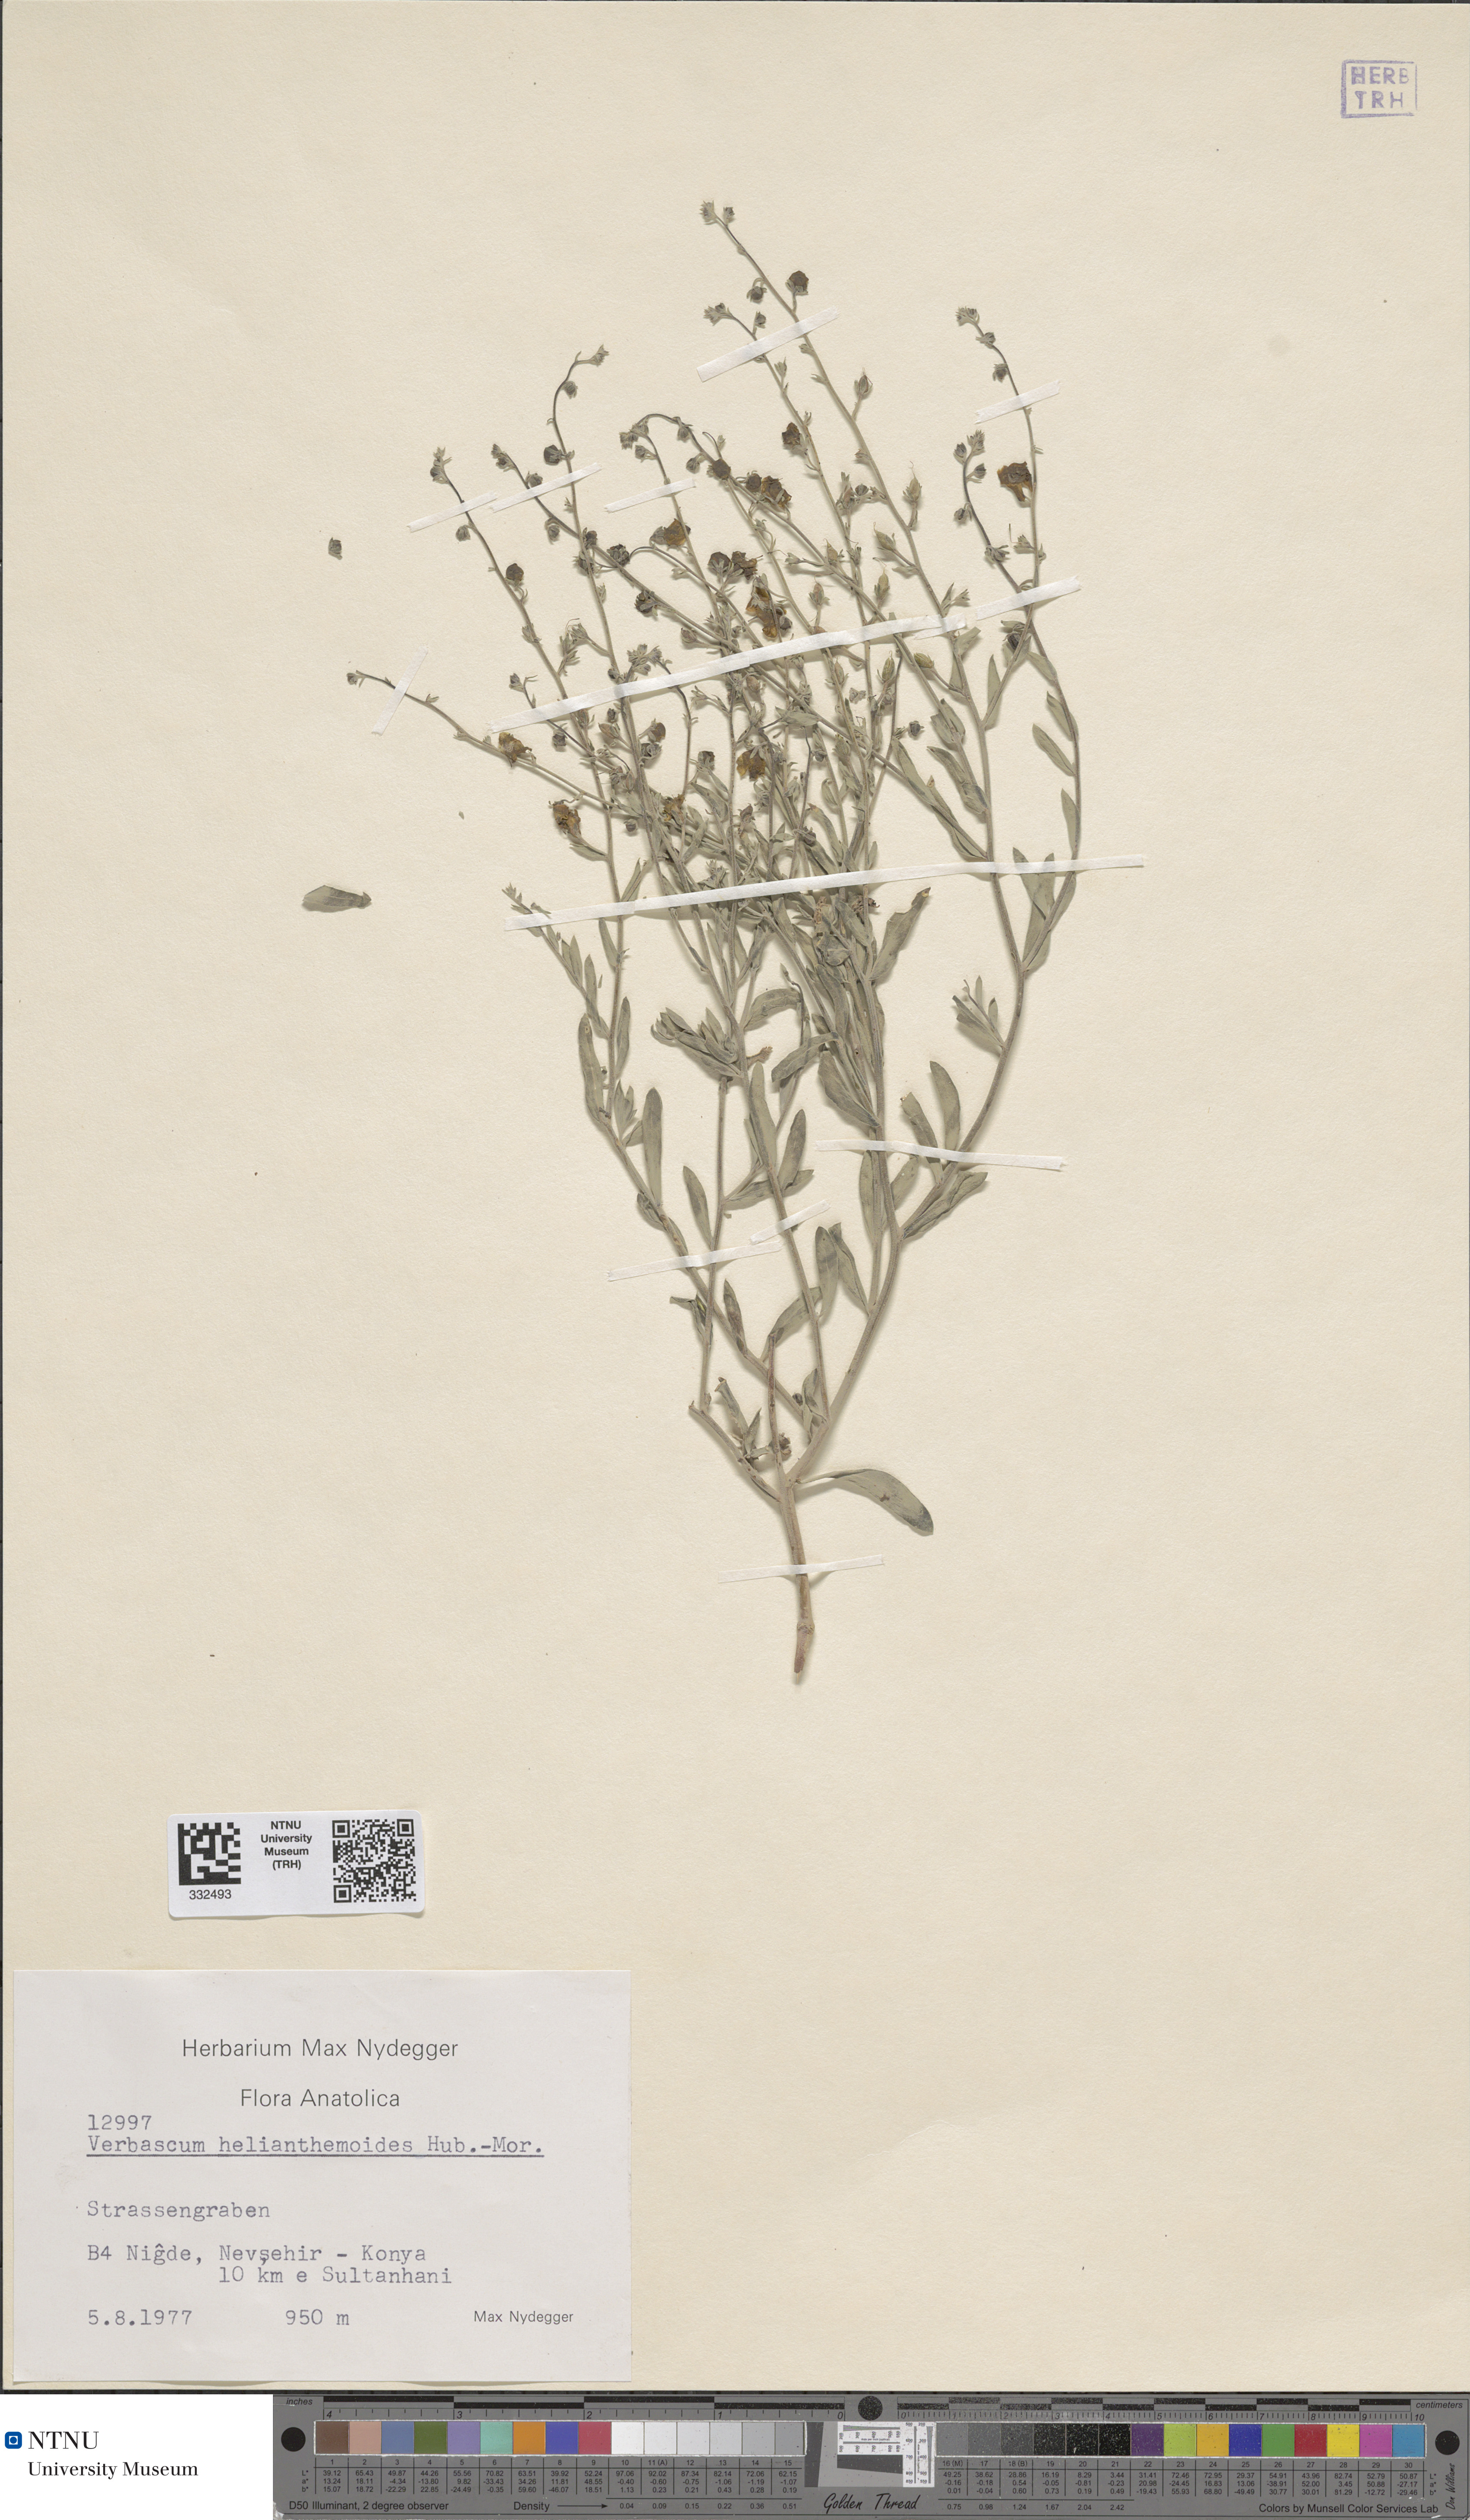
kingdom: Plantae
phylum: Tracheophyta
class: Magnoliopsida
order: Lamiales
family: Scrophulariaceae
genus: Verbascum
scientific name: Verbascum helianthemoides
